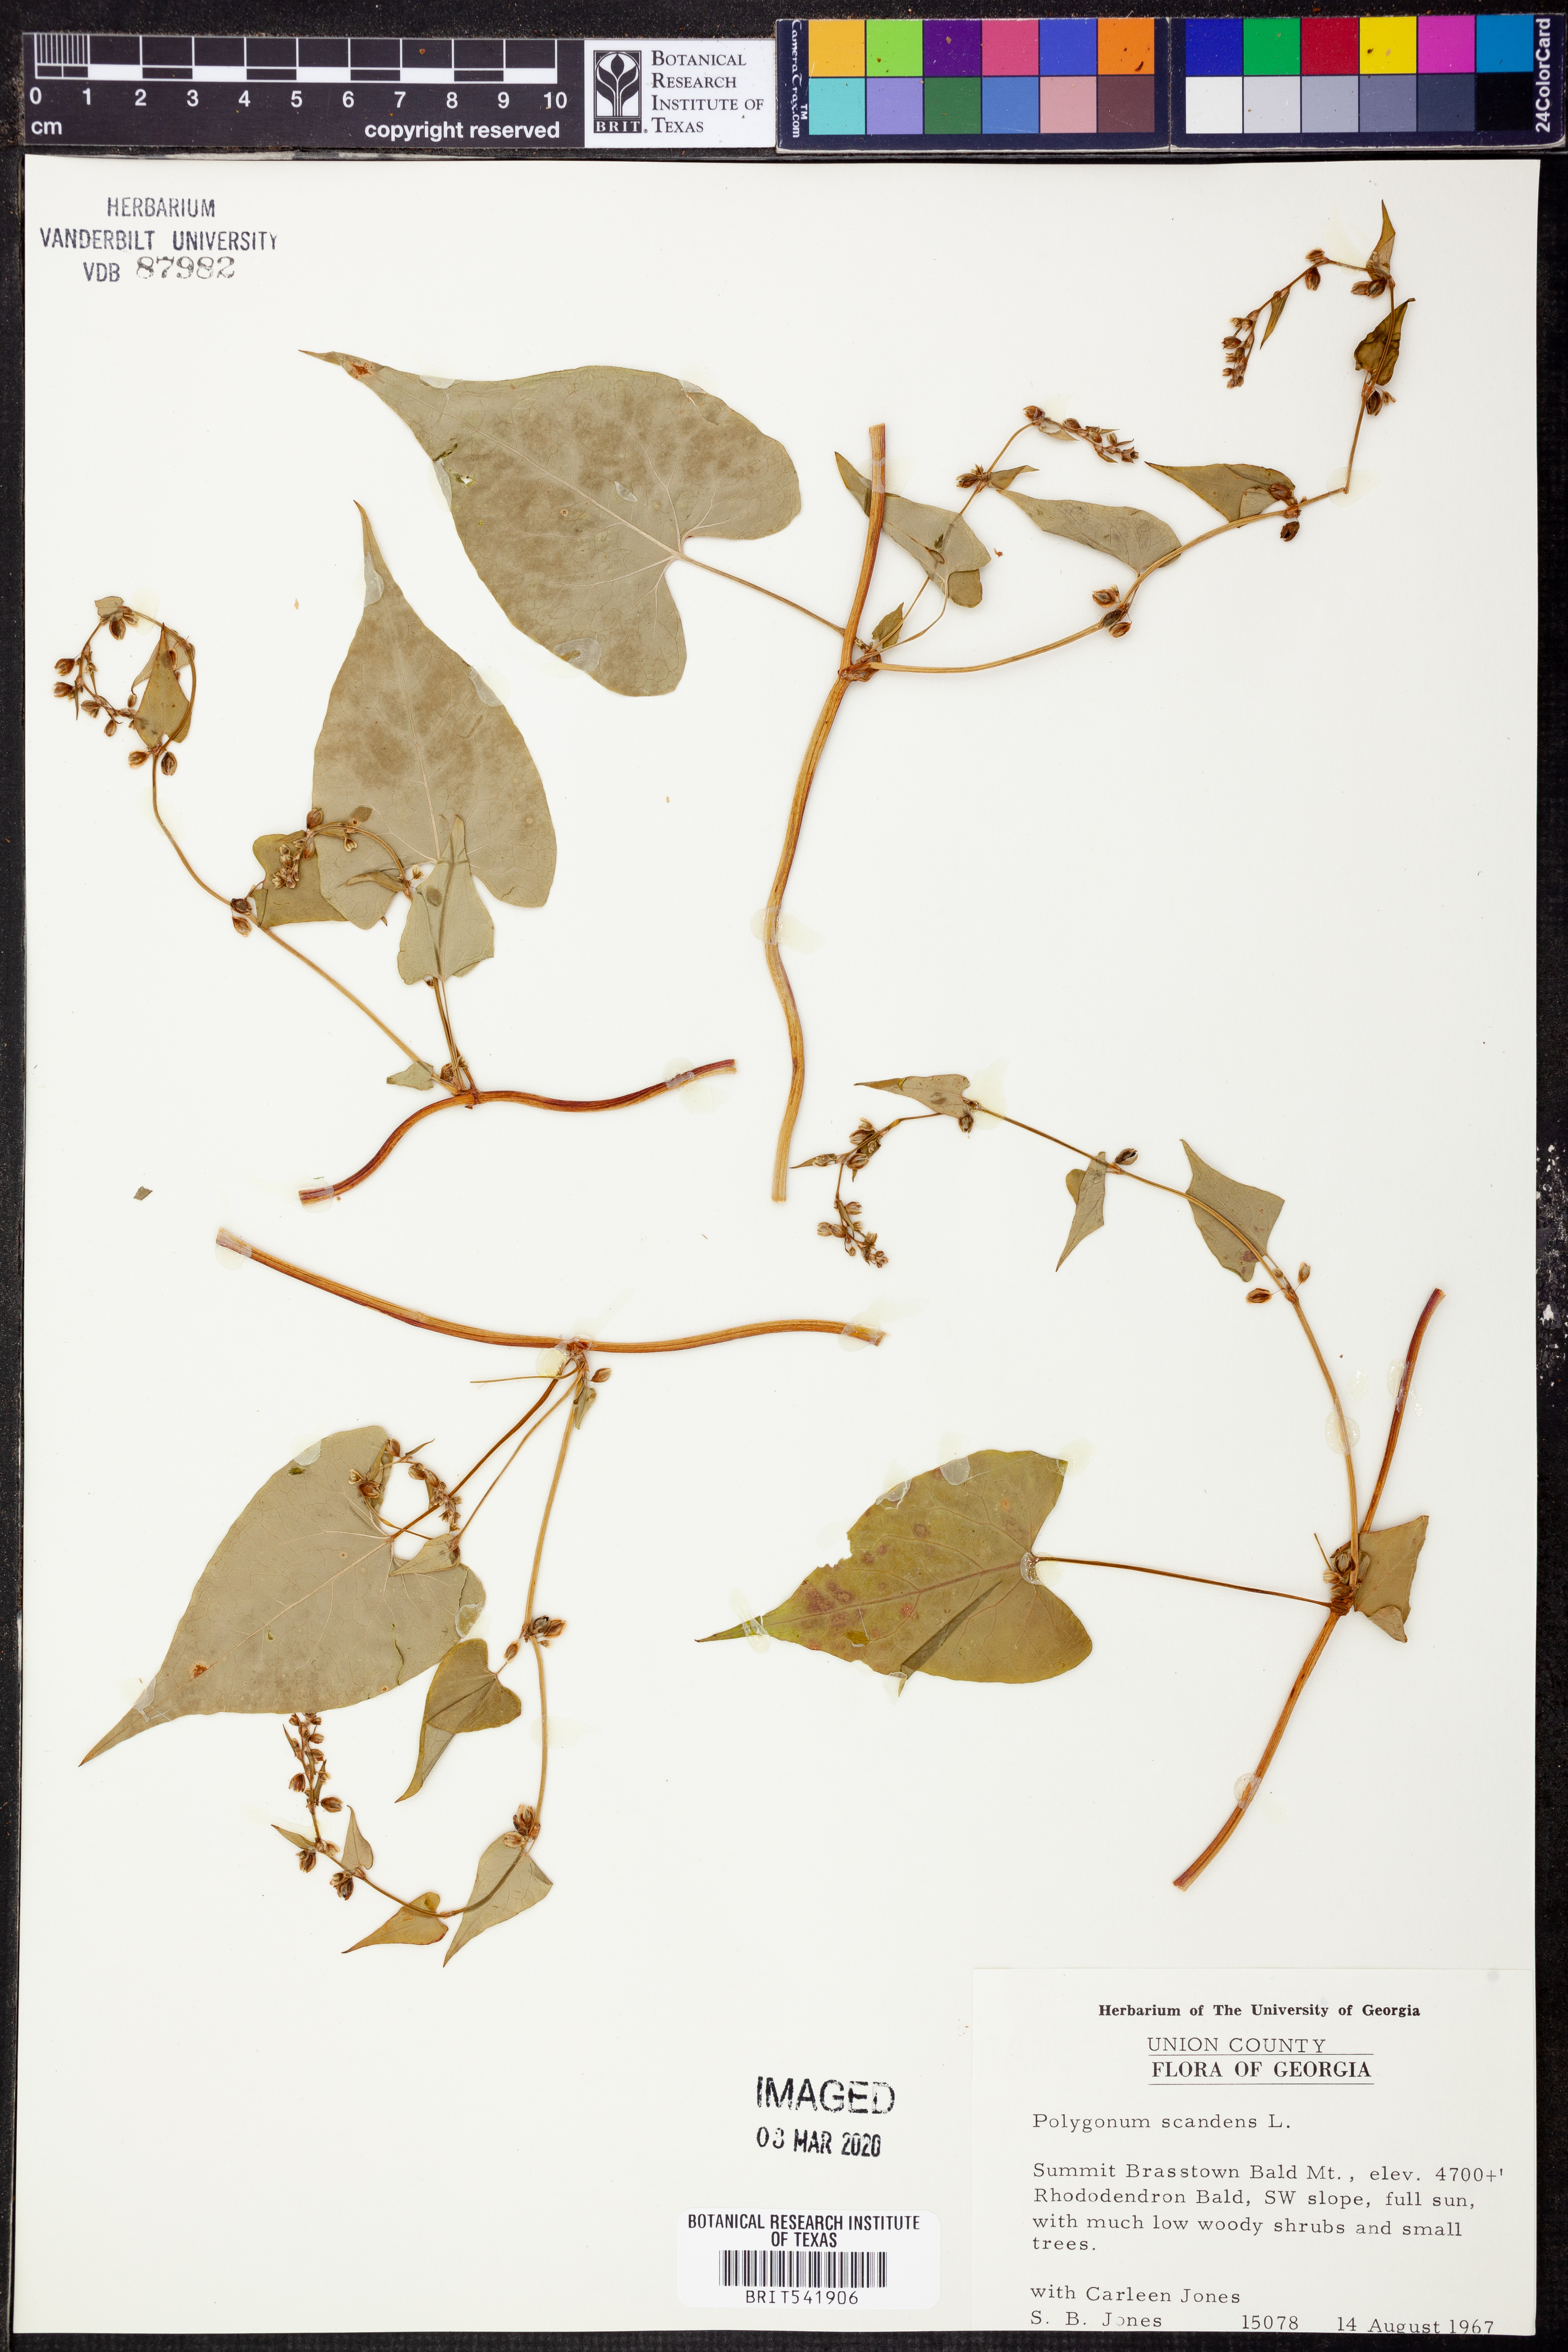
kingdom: Plantae
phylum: Tracheophyta
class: Magnoliopsida
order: Caryophyllales
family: Polygonaceae
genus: Fallopia
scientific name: Fallopia scandens
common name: Climbing false buckwheat
